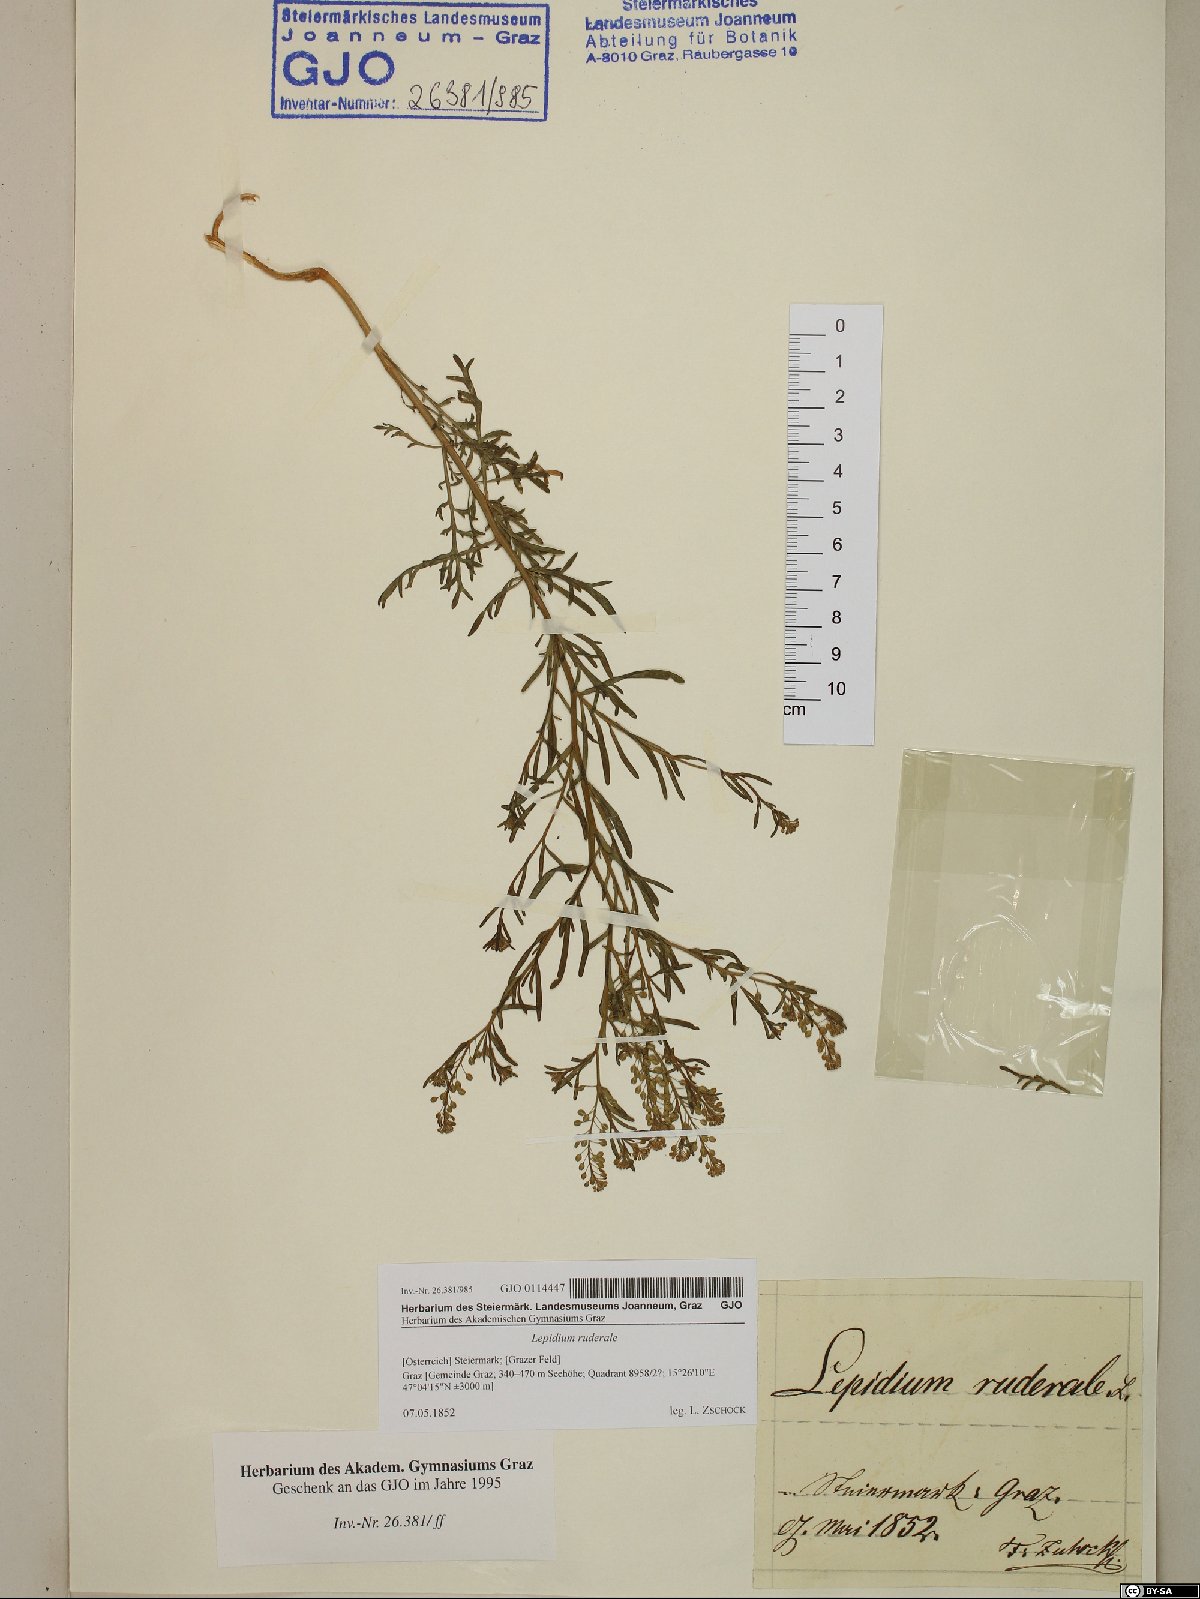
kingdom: Plantae
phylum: Tracheophyta
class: Magnoliopsida
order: Brassicales
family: Brassicaceae
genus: Lepidium
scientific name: Lepidium ruderale
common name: Narrow-leaved pepperwort
